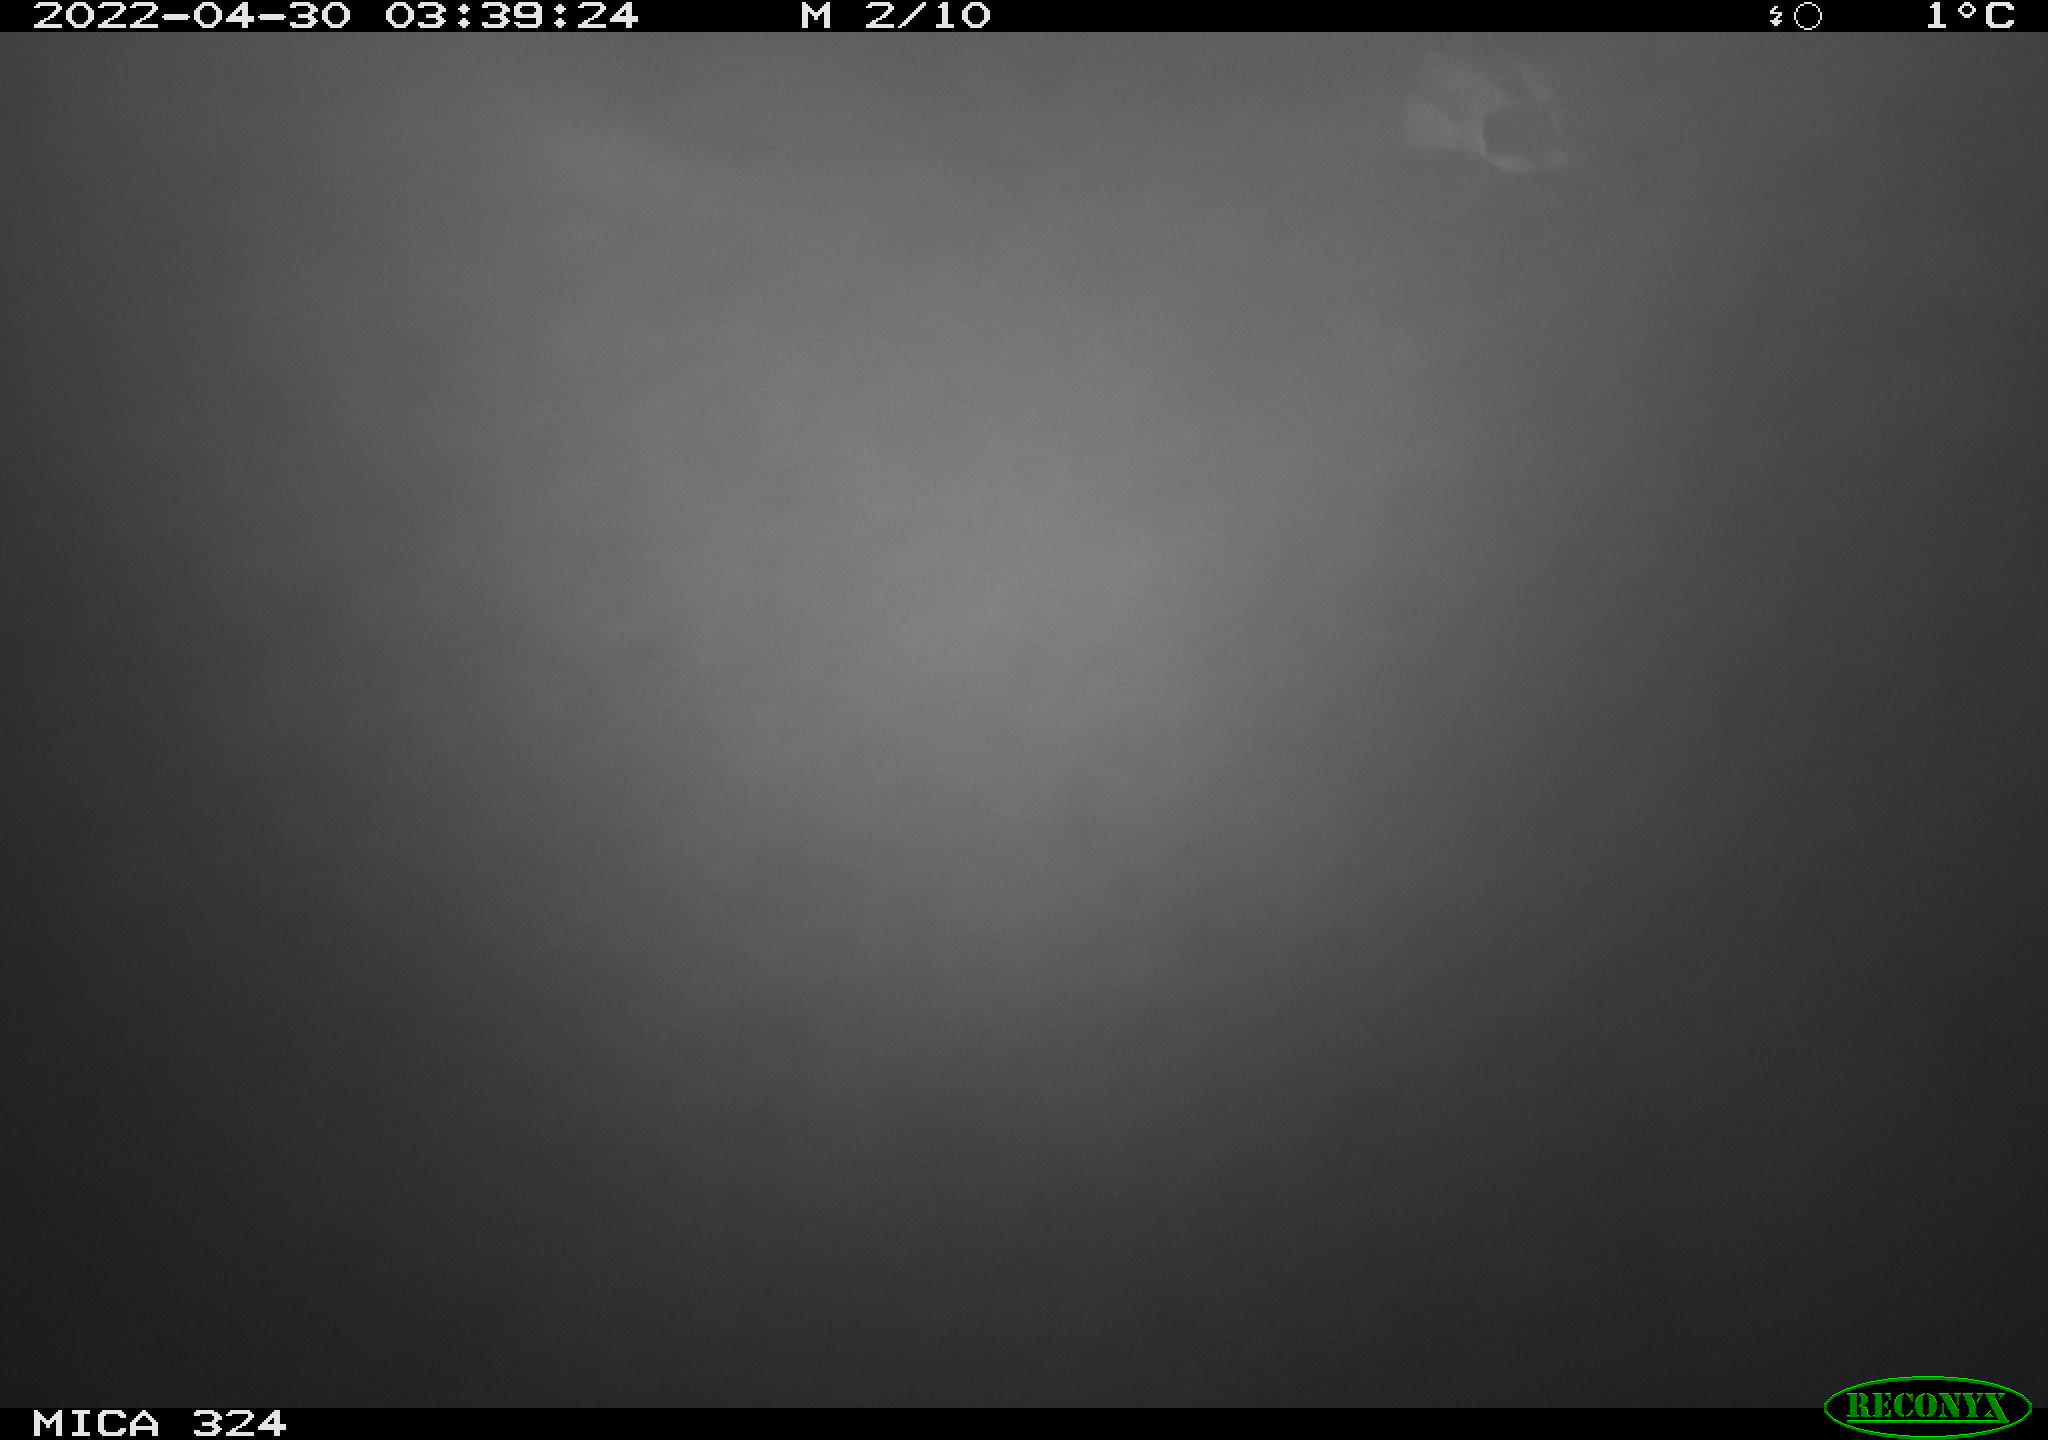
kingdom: Animalia
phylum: Chordata
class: Aves
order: Anseriformes
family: Anatidae
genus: Anas
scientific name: Anas platyrhynchos
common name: Mallard
